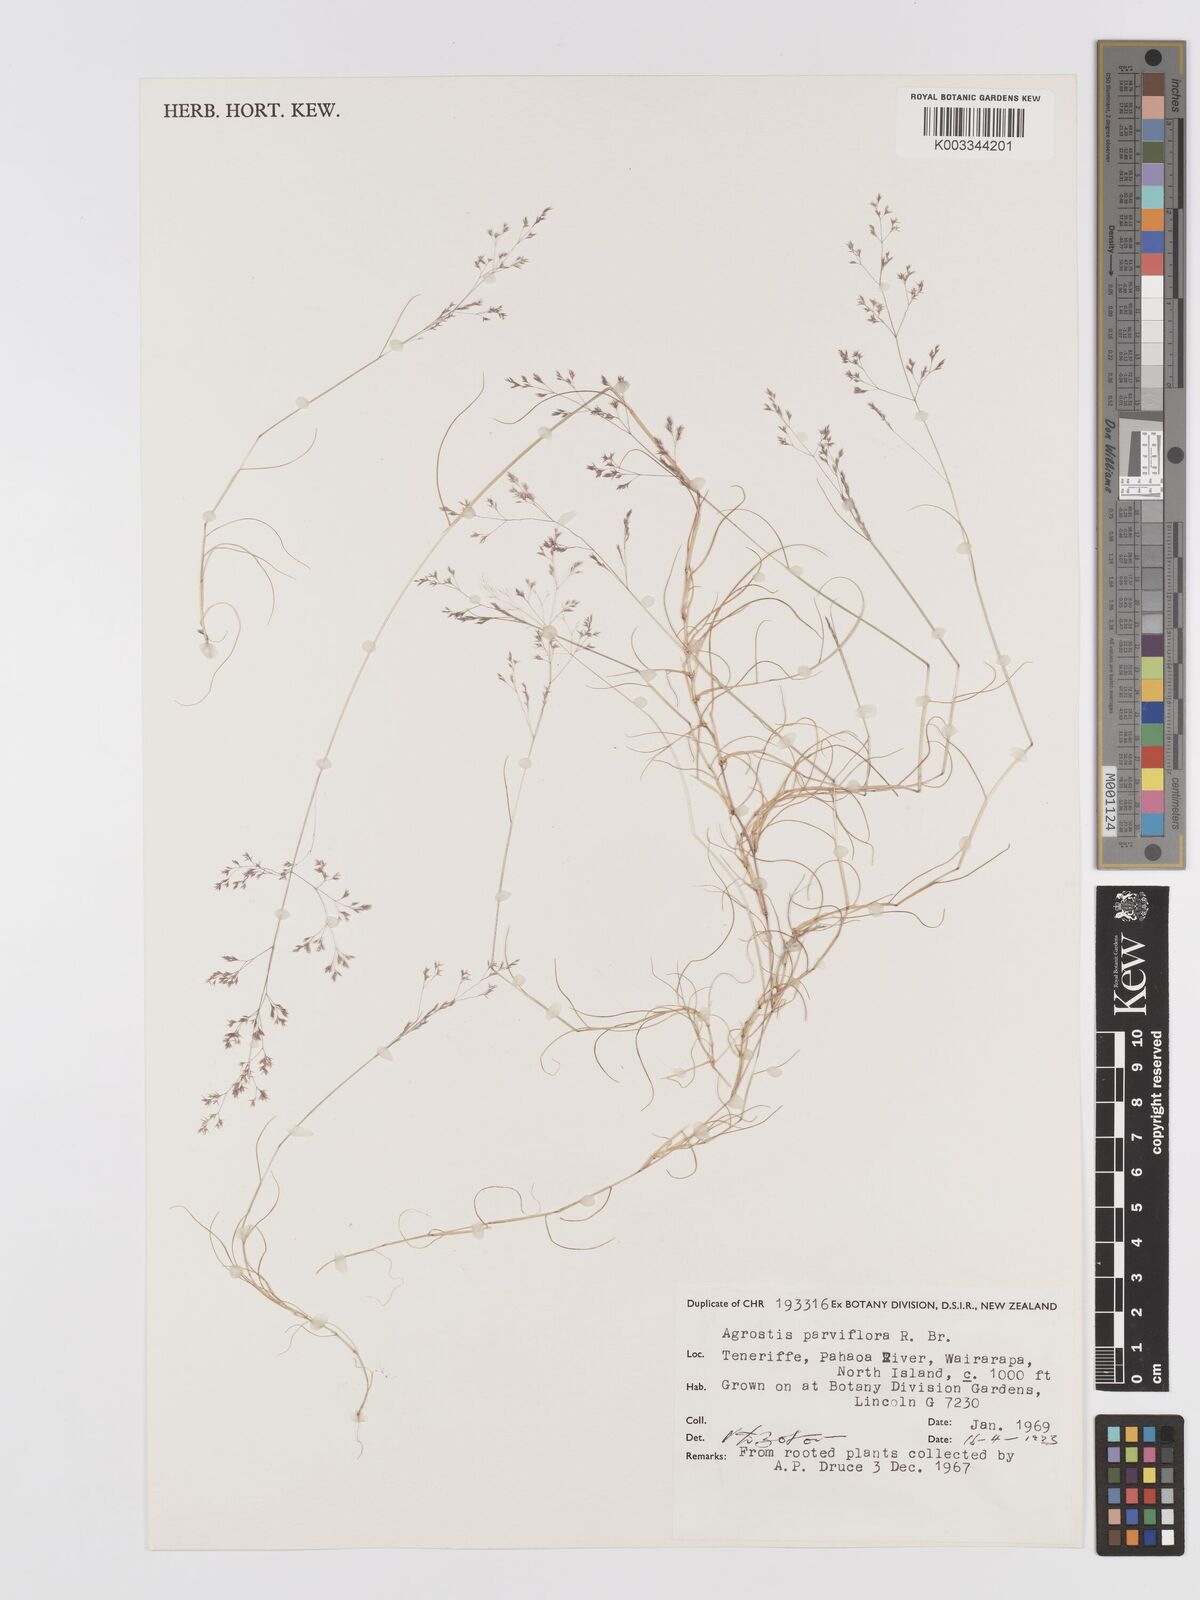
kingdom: Plantae
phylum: Tracheophyta
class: Liliopsida
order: Poales
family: Poaceae
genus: Agrostis
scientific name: Agrostis parviflora
